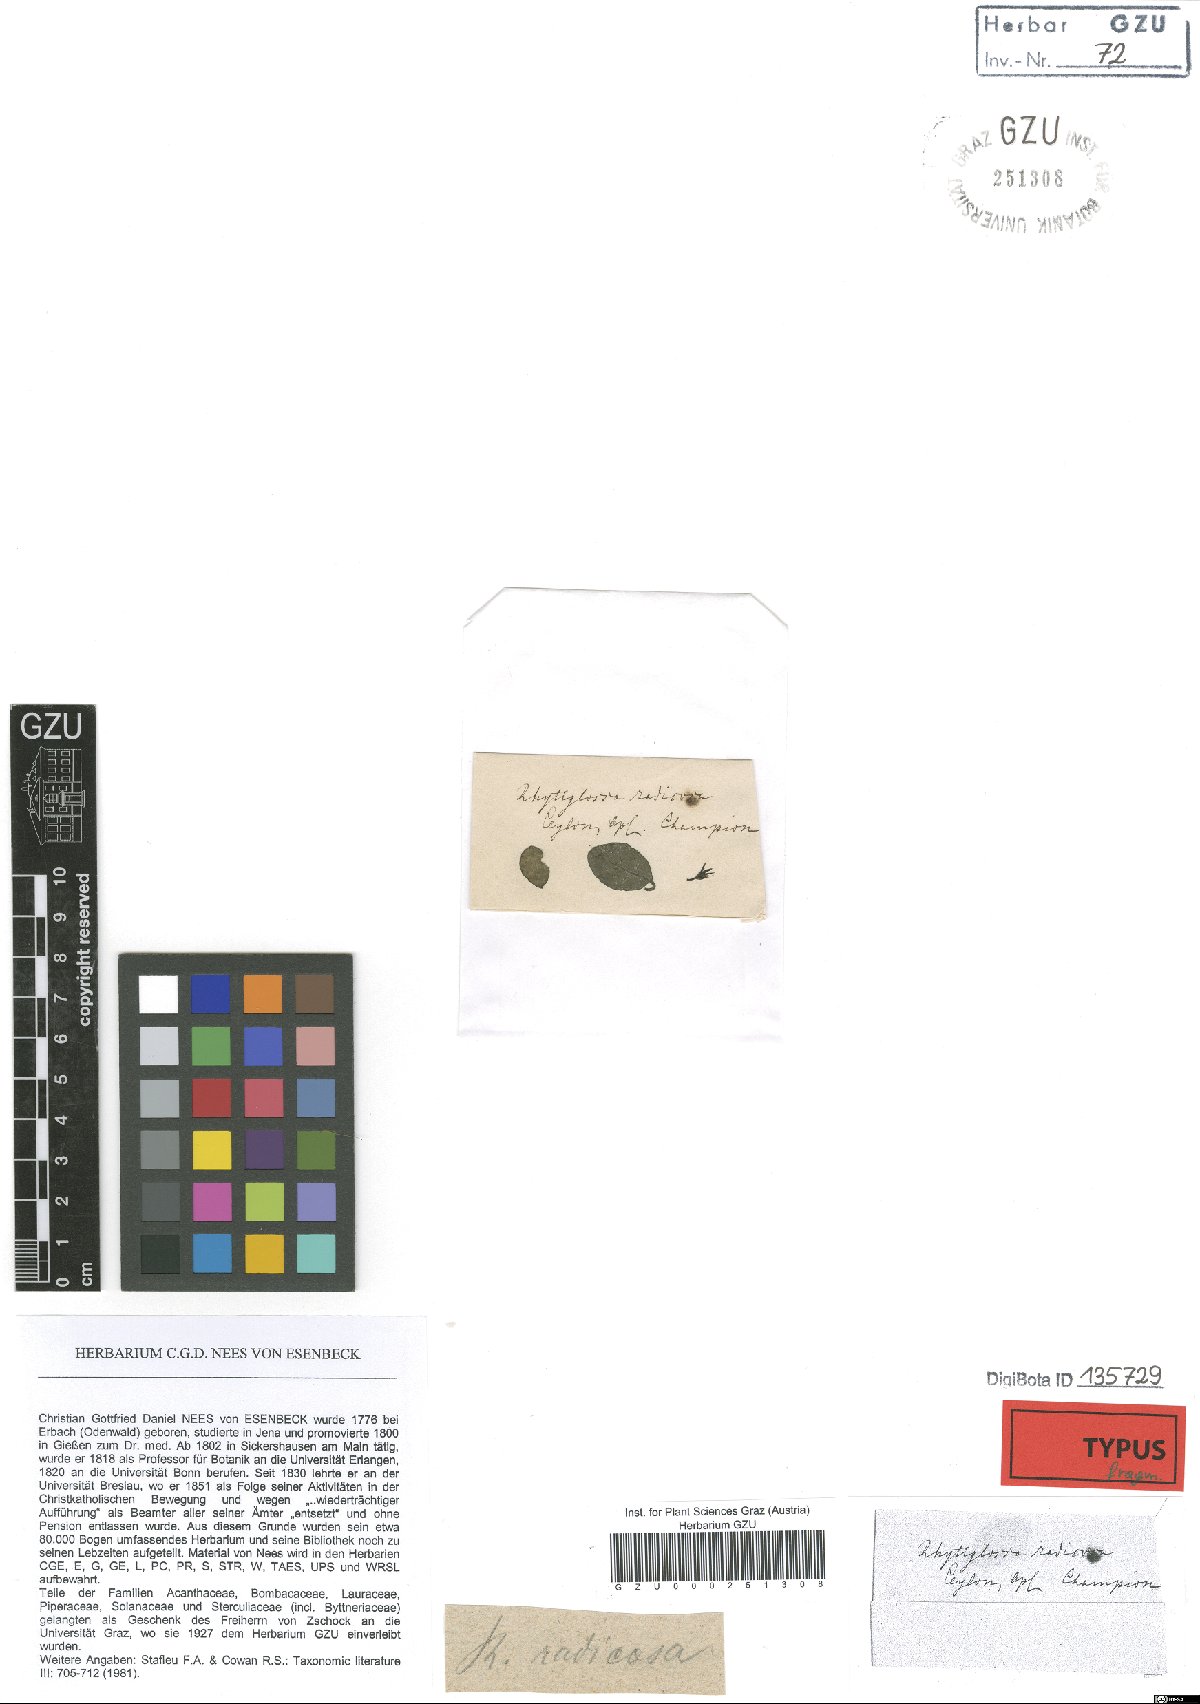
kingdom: Plantae
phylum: Tracheophyta
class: Magnoliopsida
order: Lamiales
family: Acanthaceae
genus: Ptyssiglottis
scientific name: Ptyssiglottis sanguinolenta
